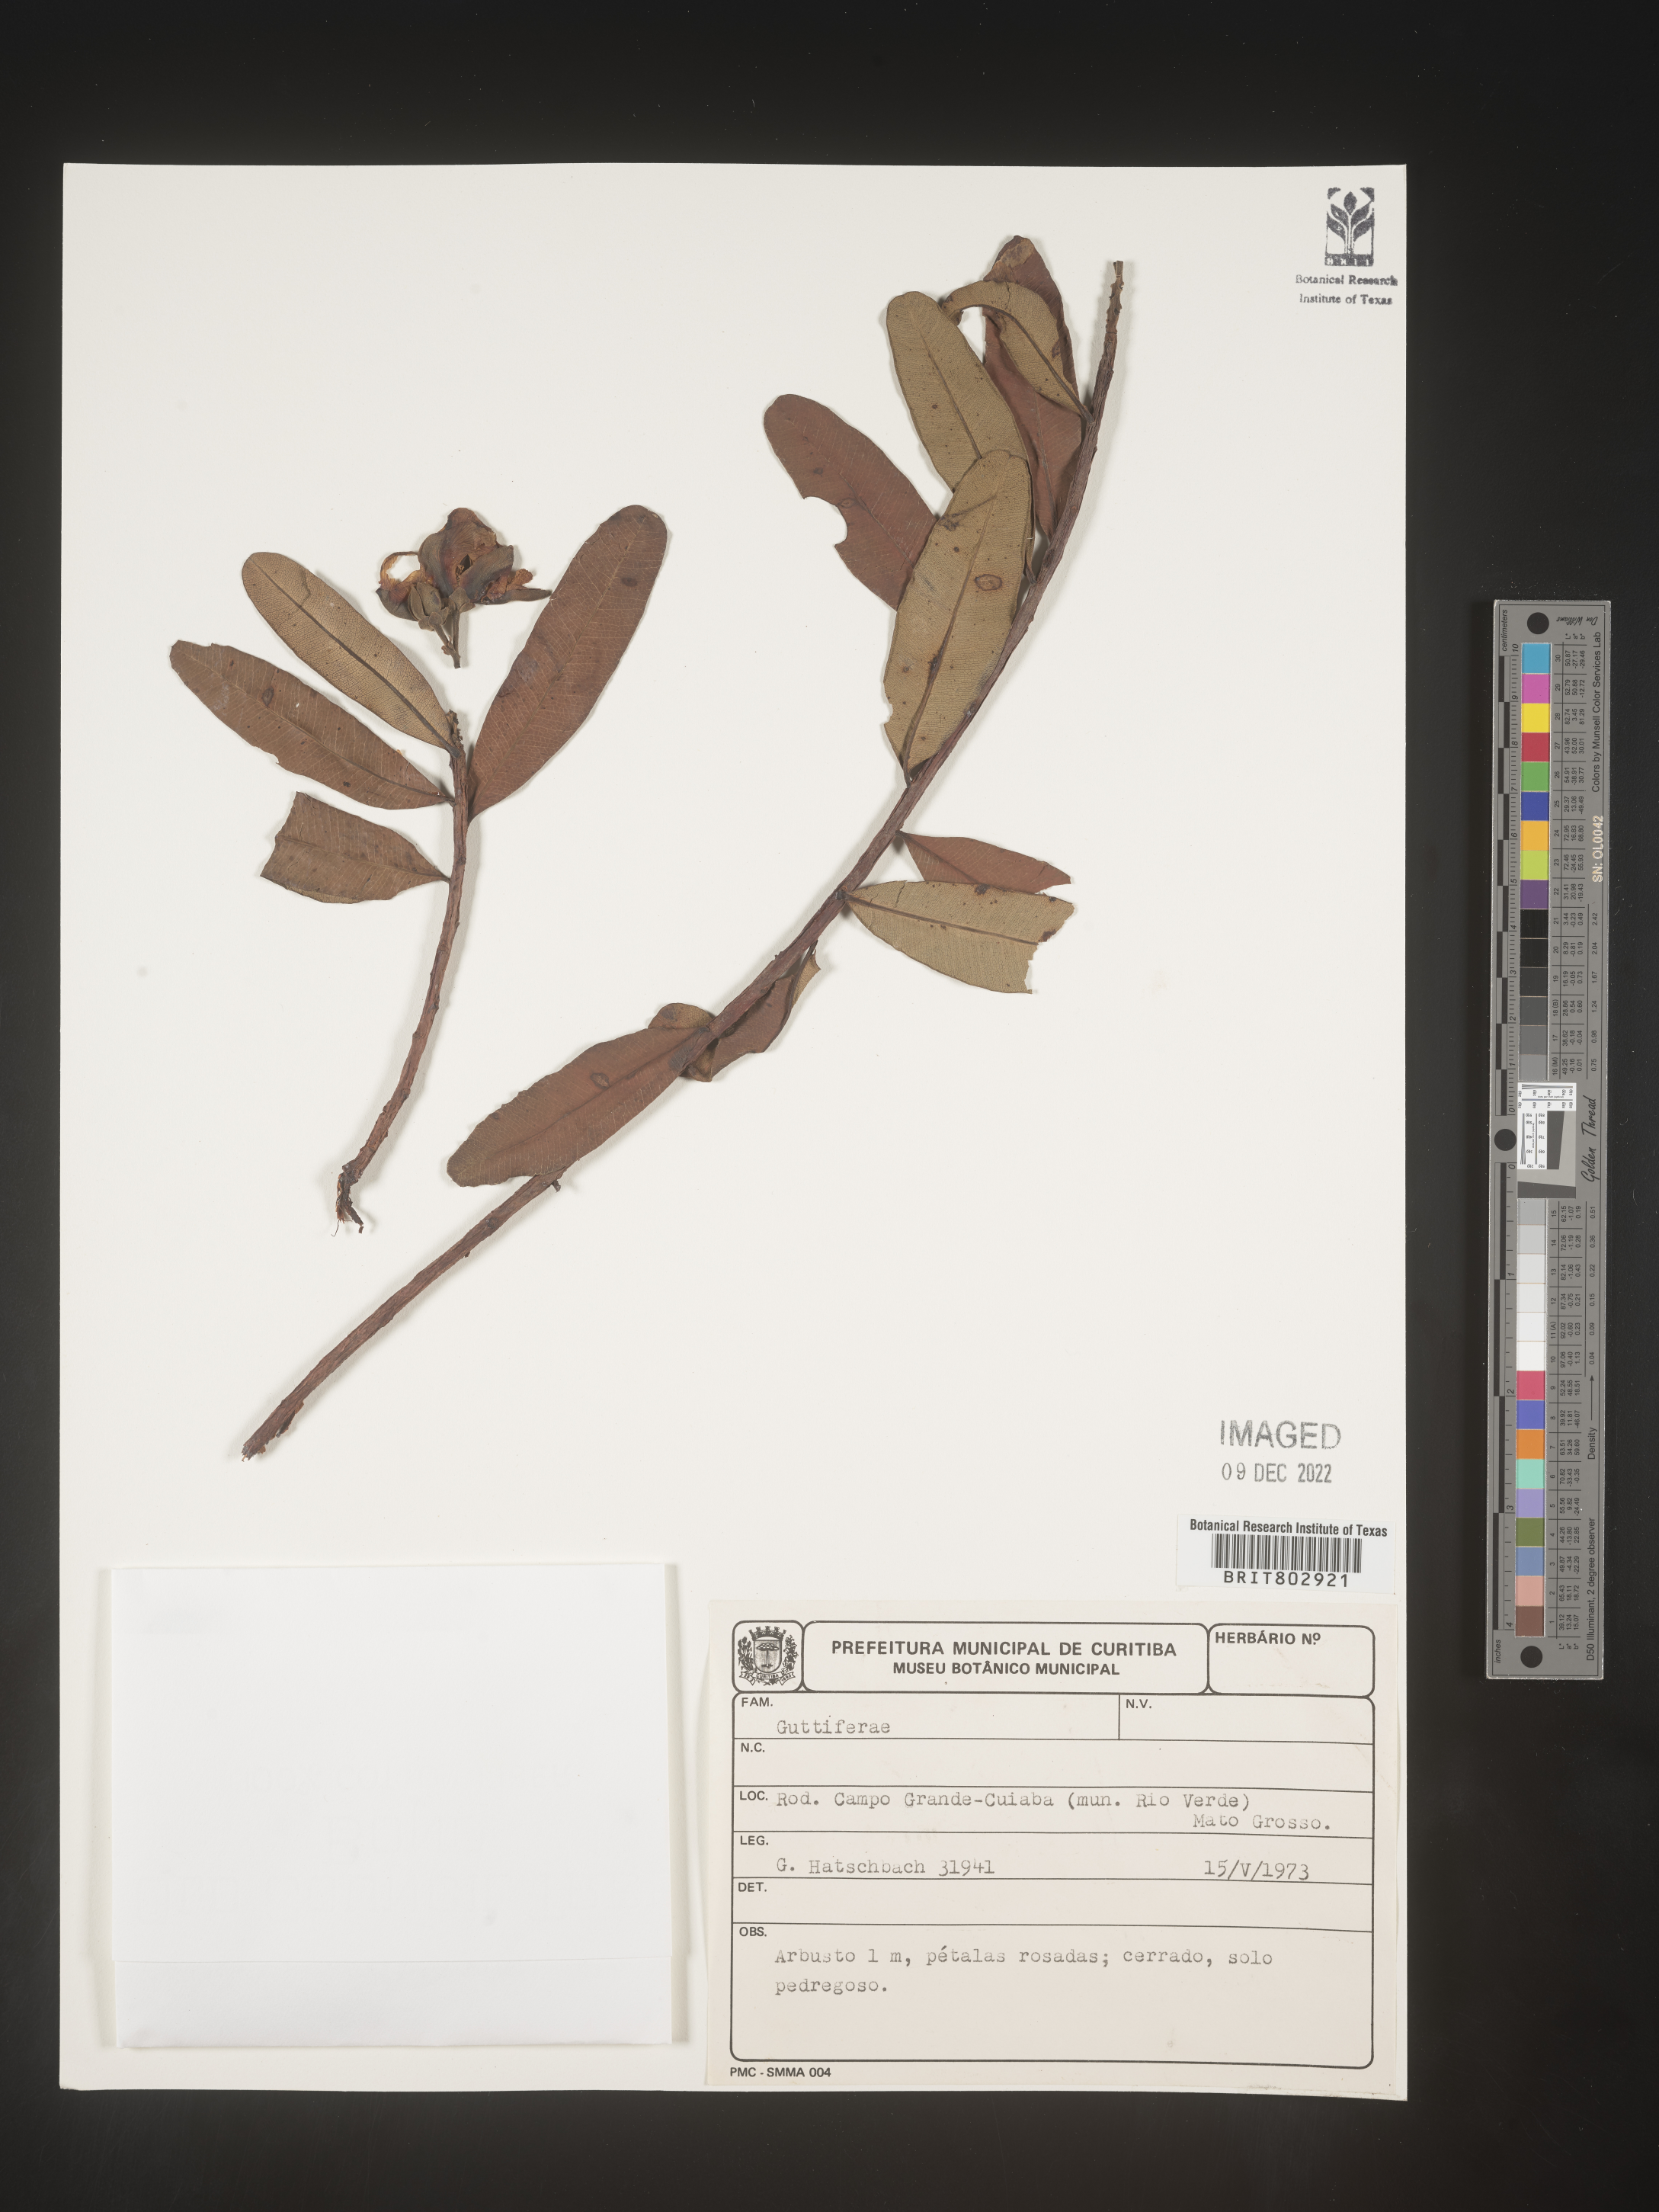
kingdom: Plantae
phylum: Tracheophyta
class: Magnoliopsida
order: Malpighiales
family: Calophyllaceae
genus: Kielmeyera
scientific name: Kielmeyera
